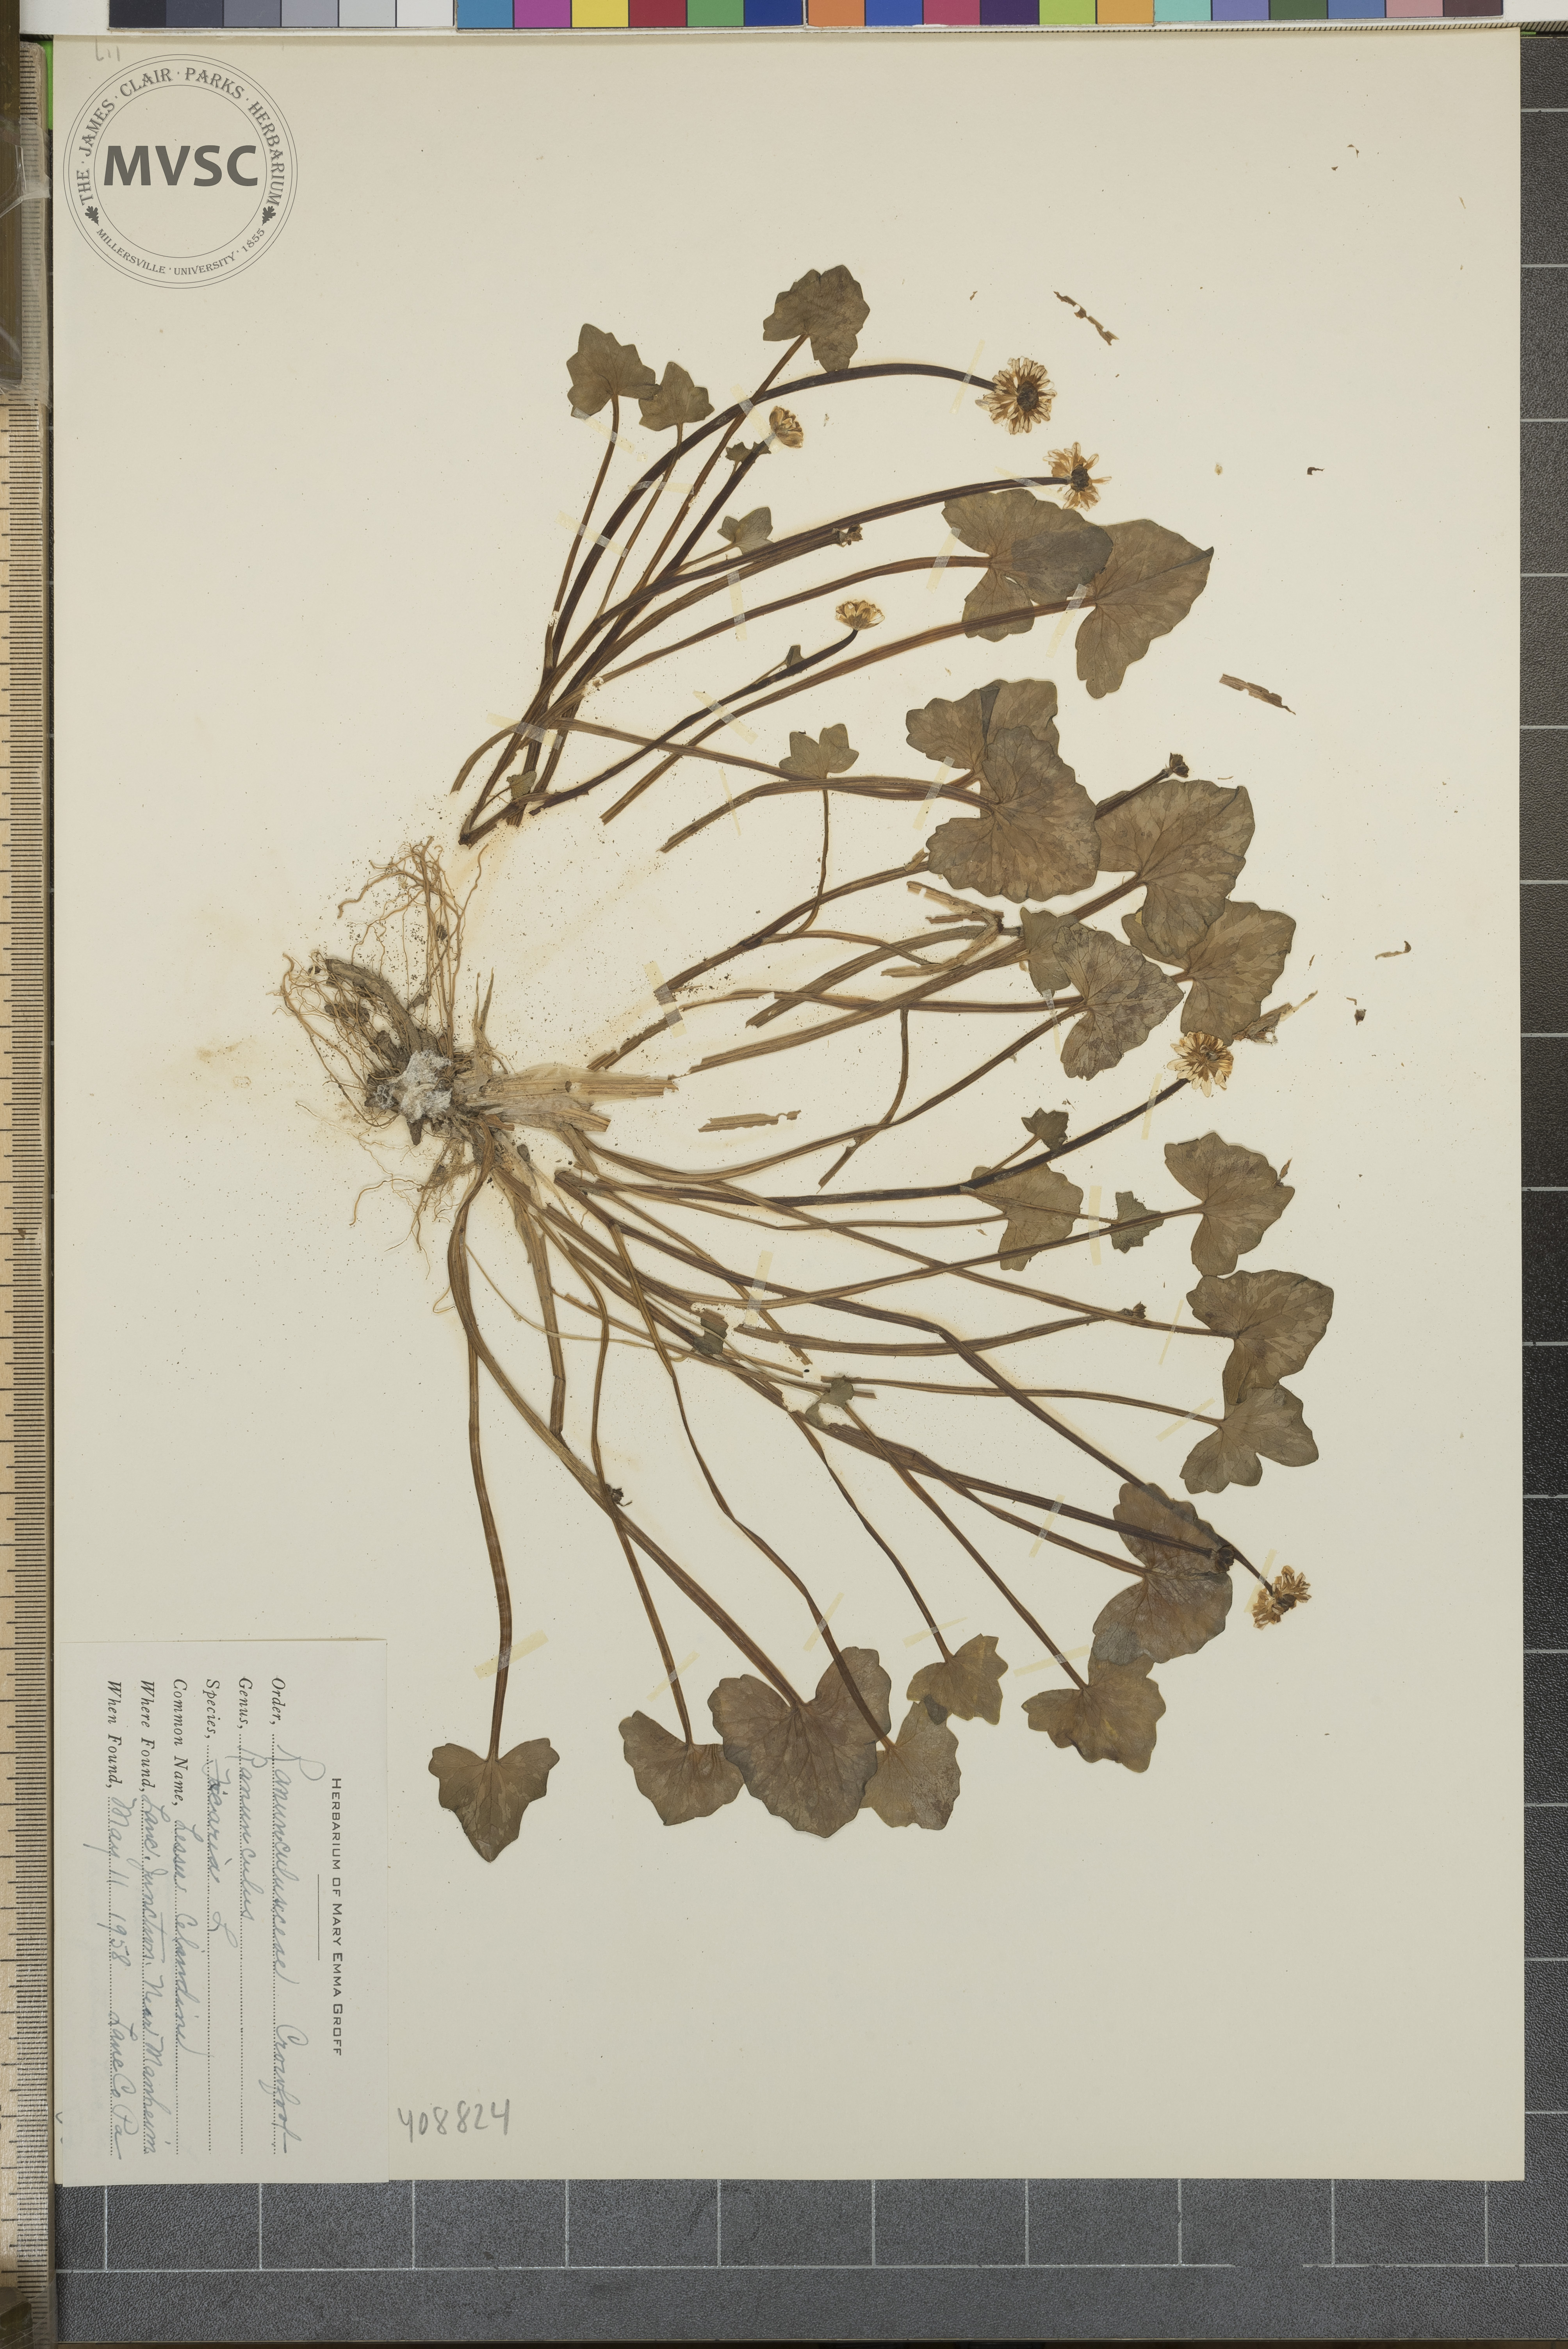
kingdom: Plantae
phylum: Tracheophyta
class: Magnoliopsida
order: Ranunculales
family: Ranunculaceae
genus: Ranunculus
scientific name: Ranunculus ficaria
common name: lesser celandine
